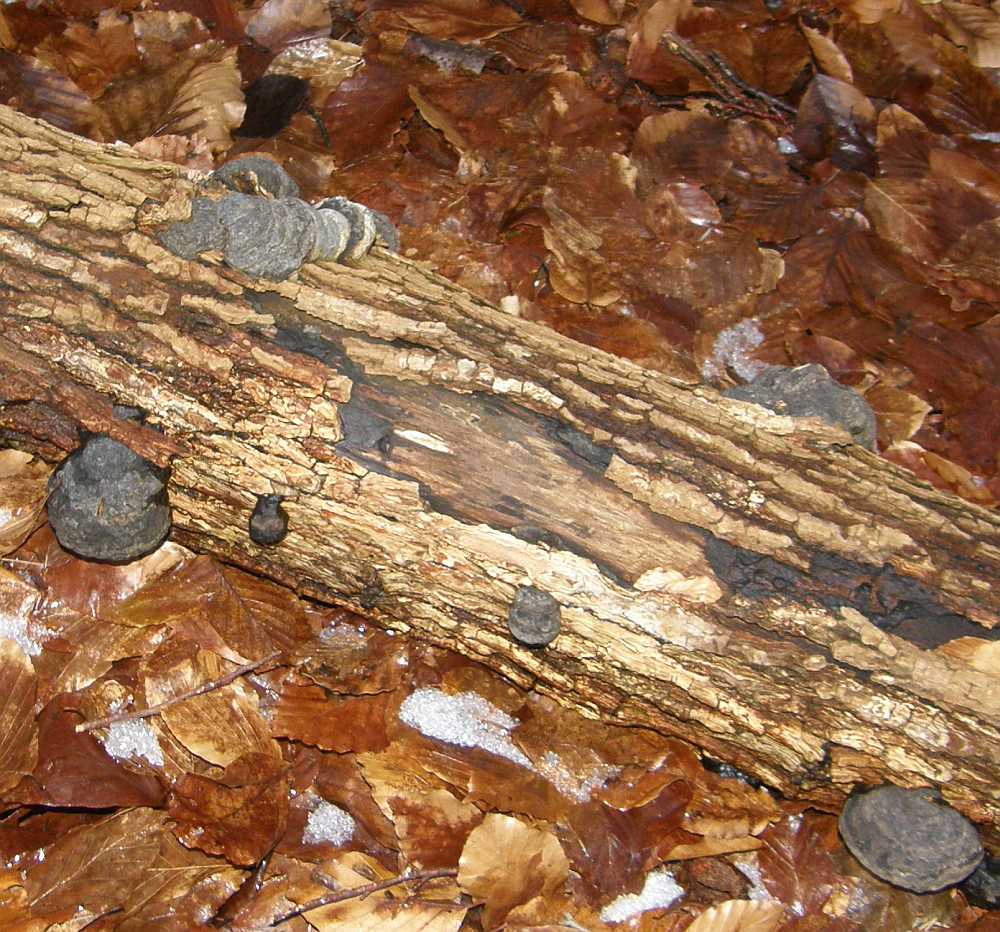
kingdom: Fungi
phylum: Basidiomycota
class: Agaricomycetes
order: Polyporales
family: Polyporaceae
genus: Fomes
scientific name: Fomes fomentarius
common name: tøndersvamp
